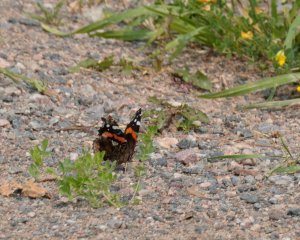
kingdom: Animalia
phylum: Arthropoda
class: Insecta
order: Lepidoptera
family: Nymphalidae
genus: Vanessa
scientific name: Vanessa atalanta
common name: Red Admiral
